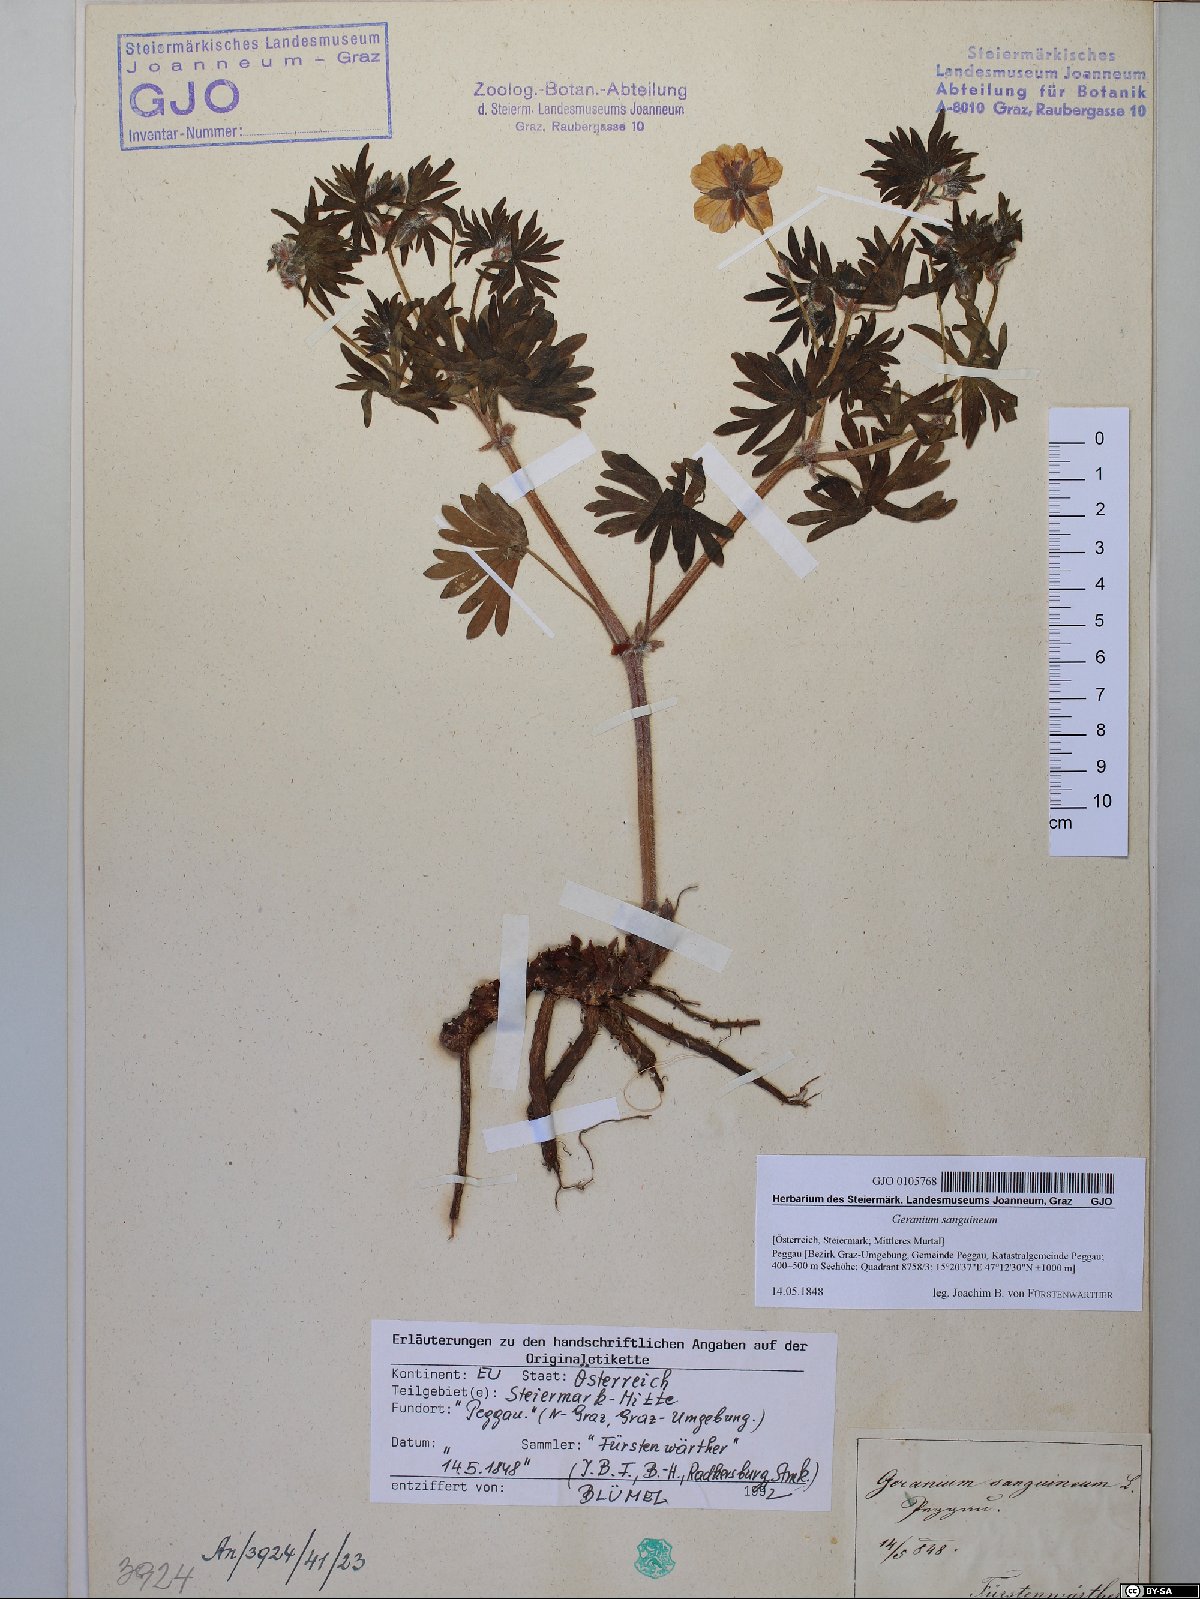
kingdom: Plantae
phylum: Tracheophyta
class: Magnoliopsida
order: Geraniales
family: Geraniaceae
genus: Geranium
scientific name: Geranium sanguineum
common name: Bloody crane's-bill
